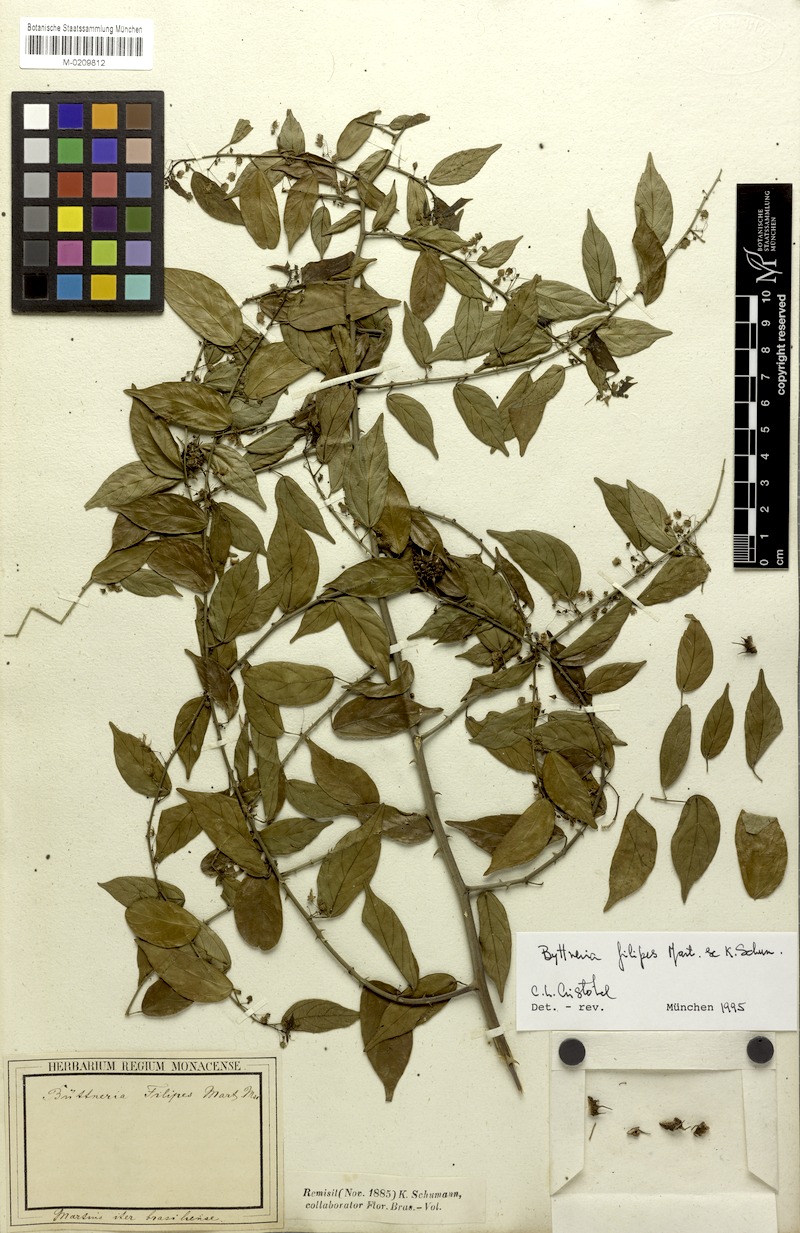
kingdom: Plantae
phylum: Tracheophyta
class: Magnoliopsida
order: Malvales
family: Malvaceae
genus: Byttneria
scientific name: Byttneria filipes
